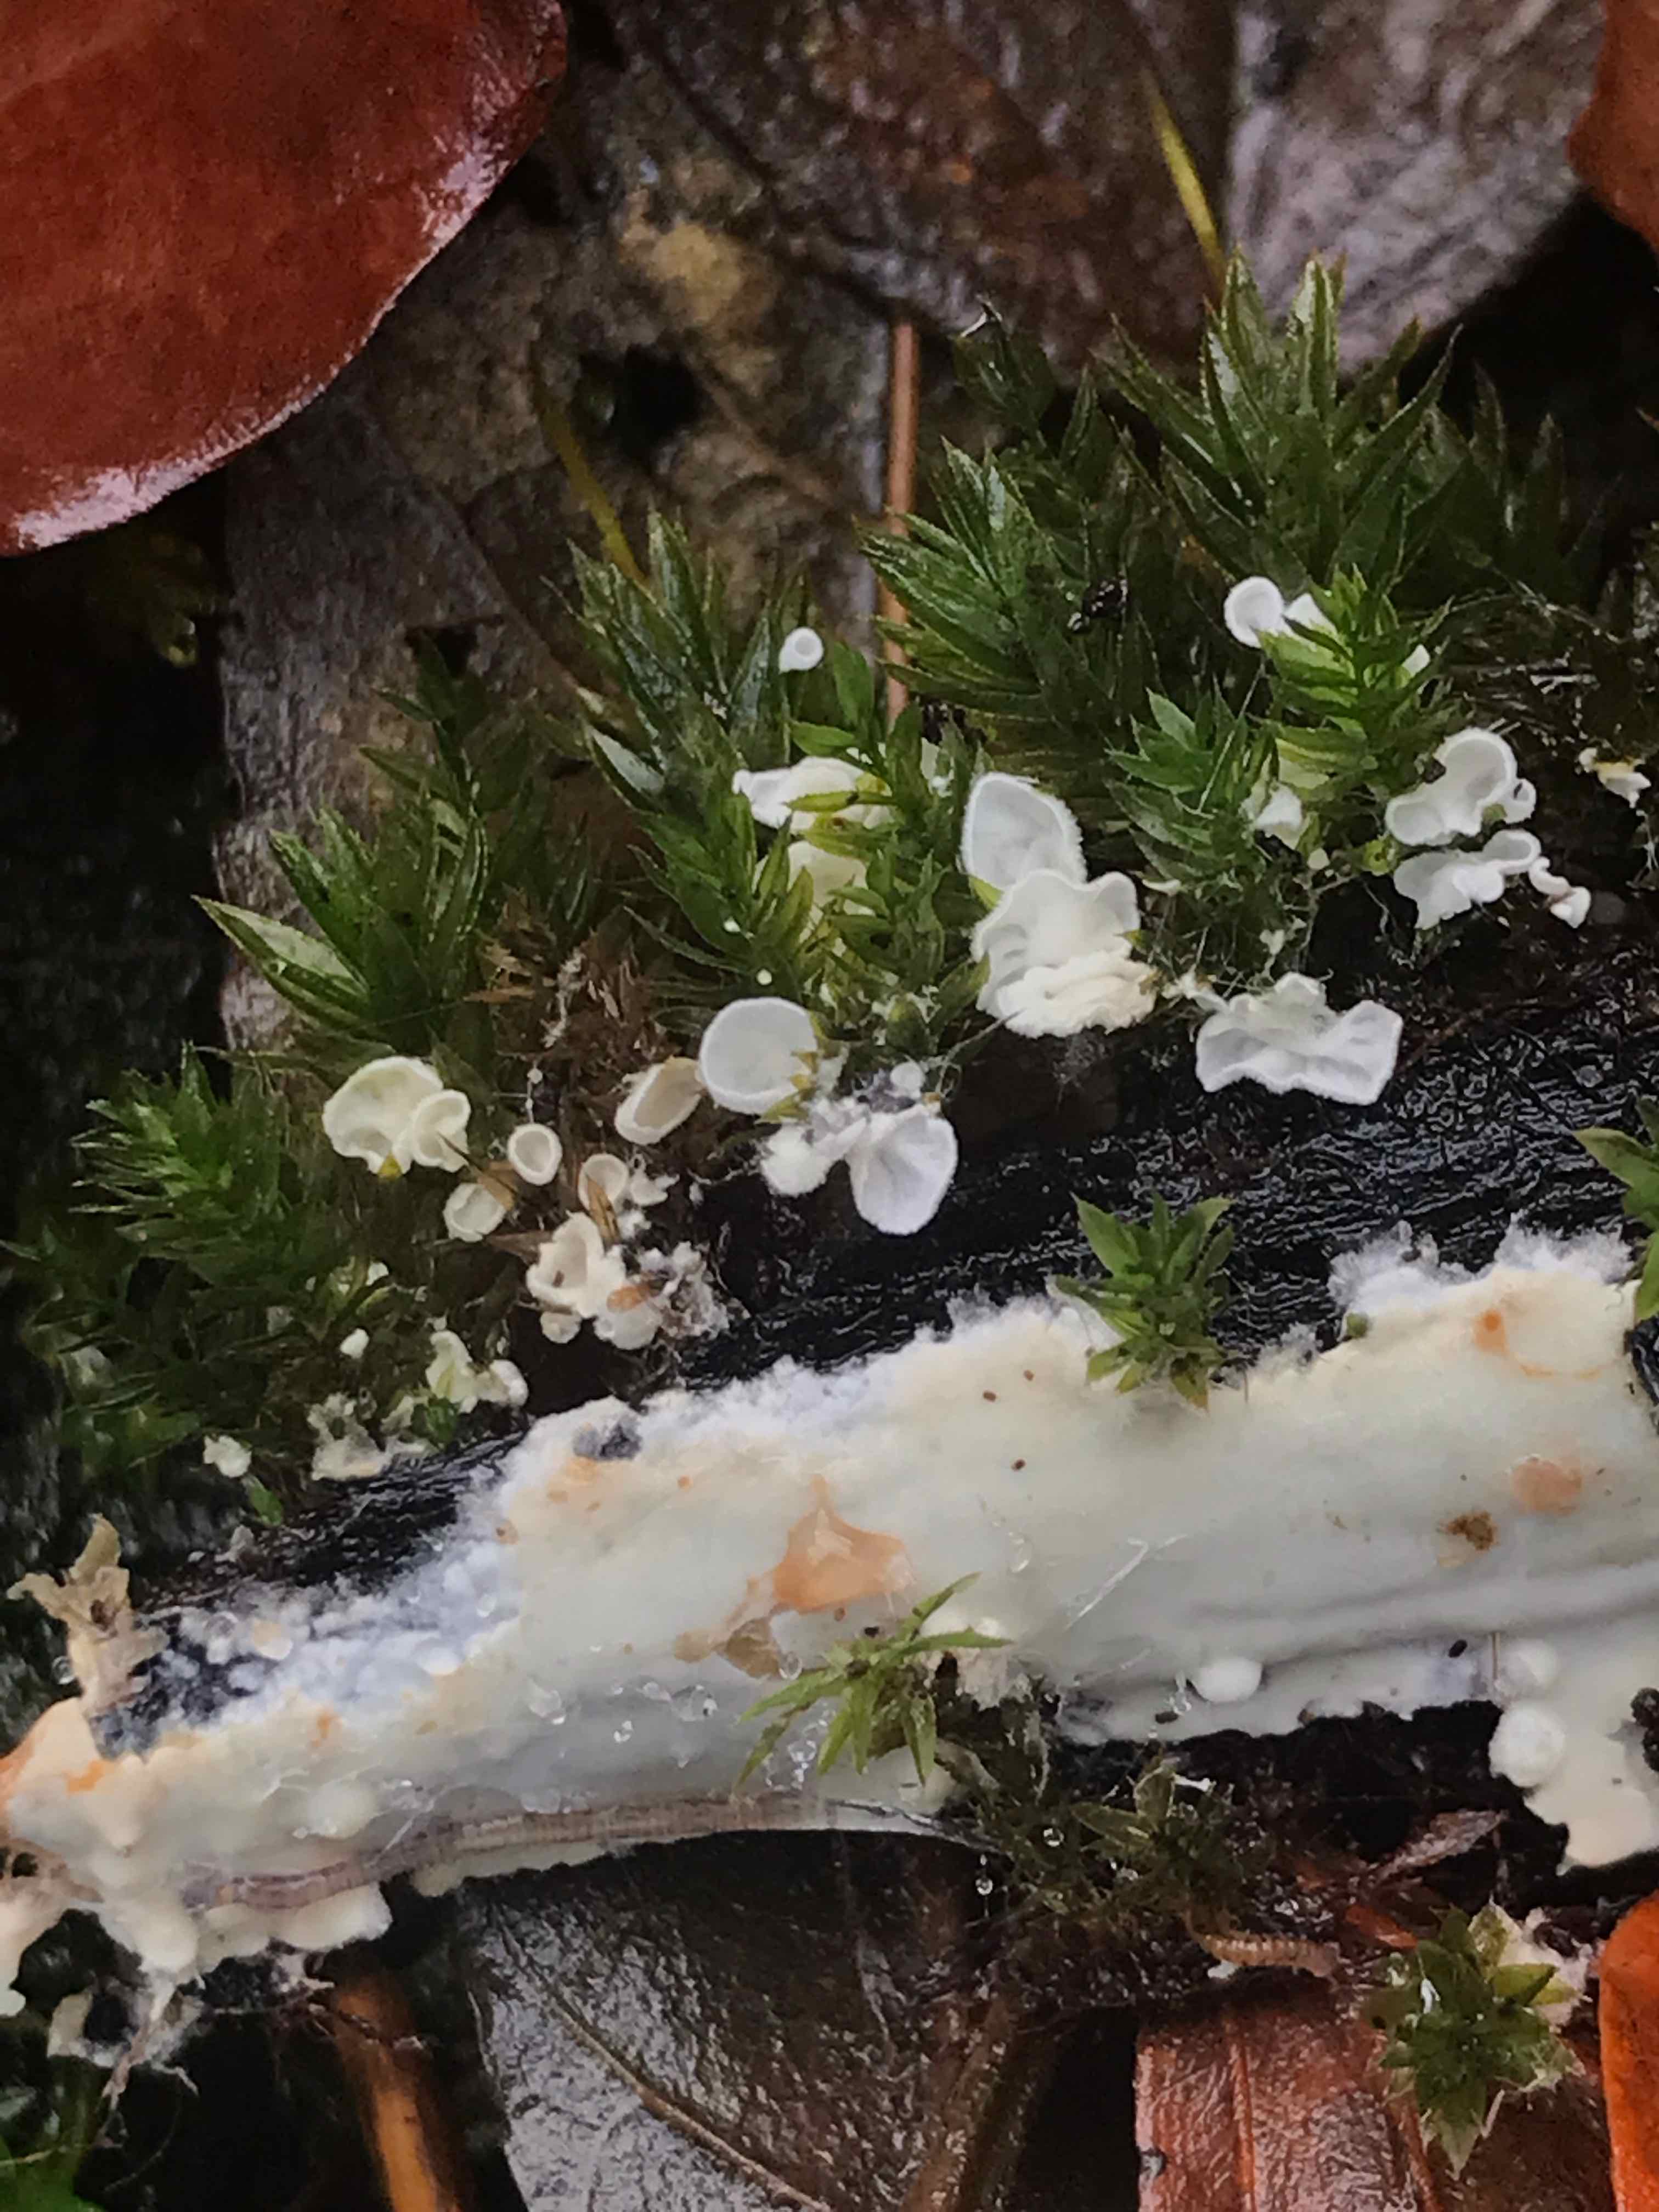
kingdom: Fungi
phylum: Basidiomycota
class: Agaricomycetes
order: Agaricales
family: Tricholomataceae
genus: Rimbachia
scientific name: Rimbachia arachnoidea
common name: Almindelig mosskål
